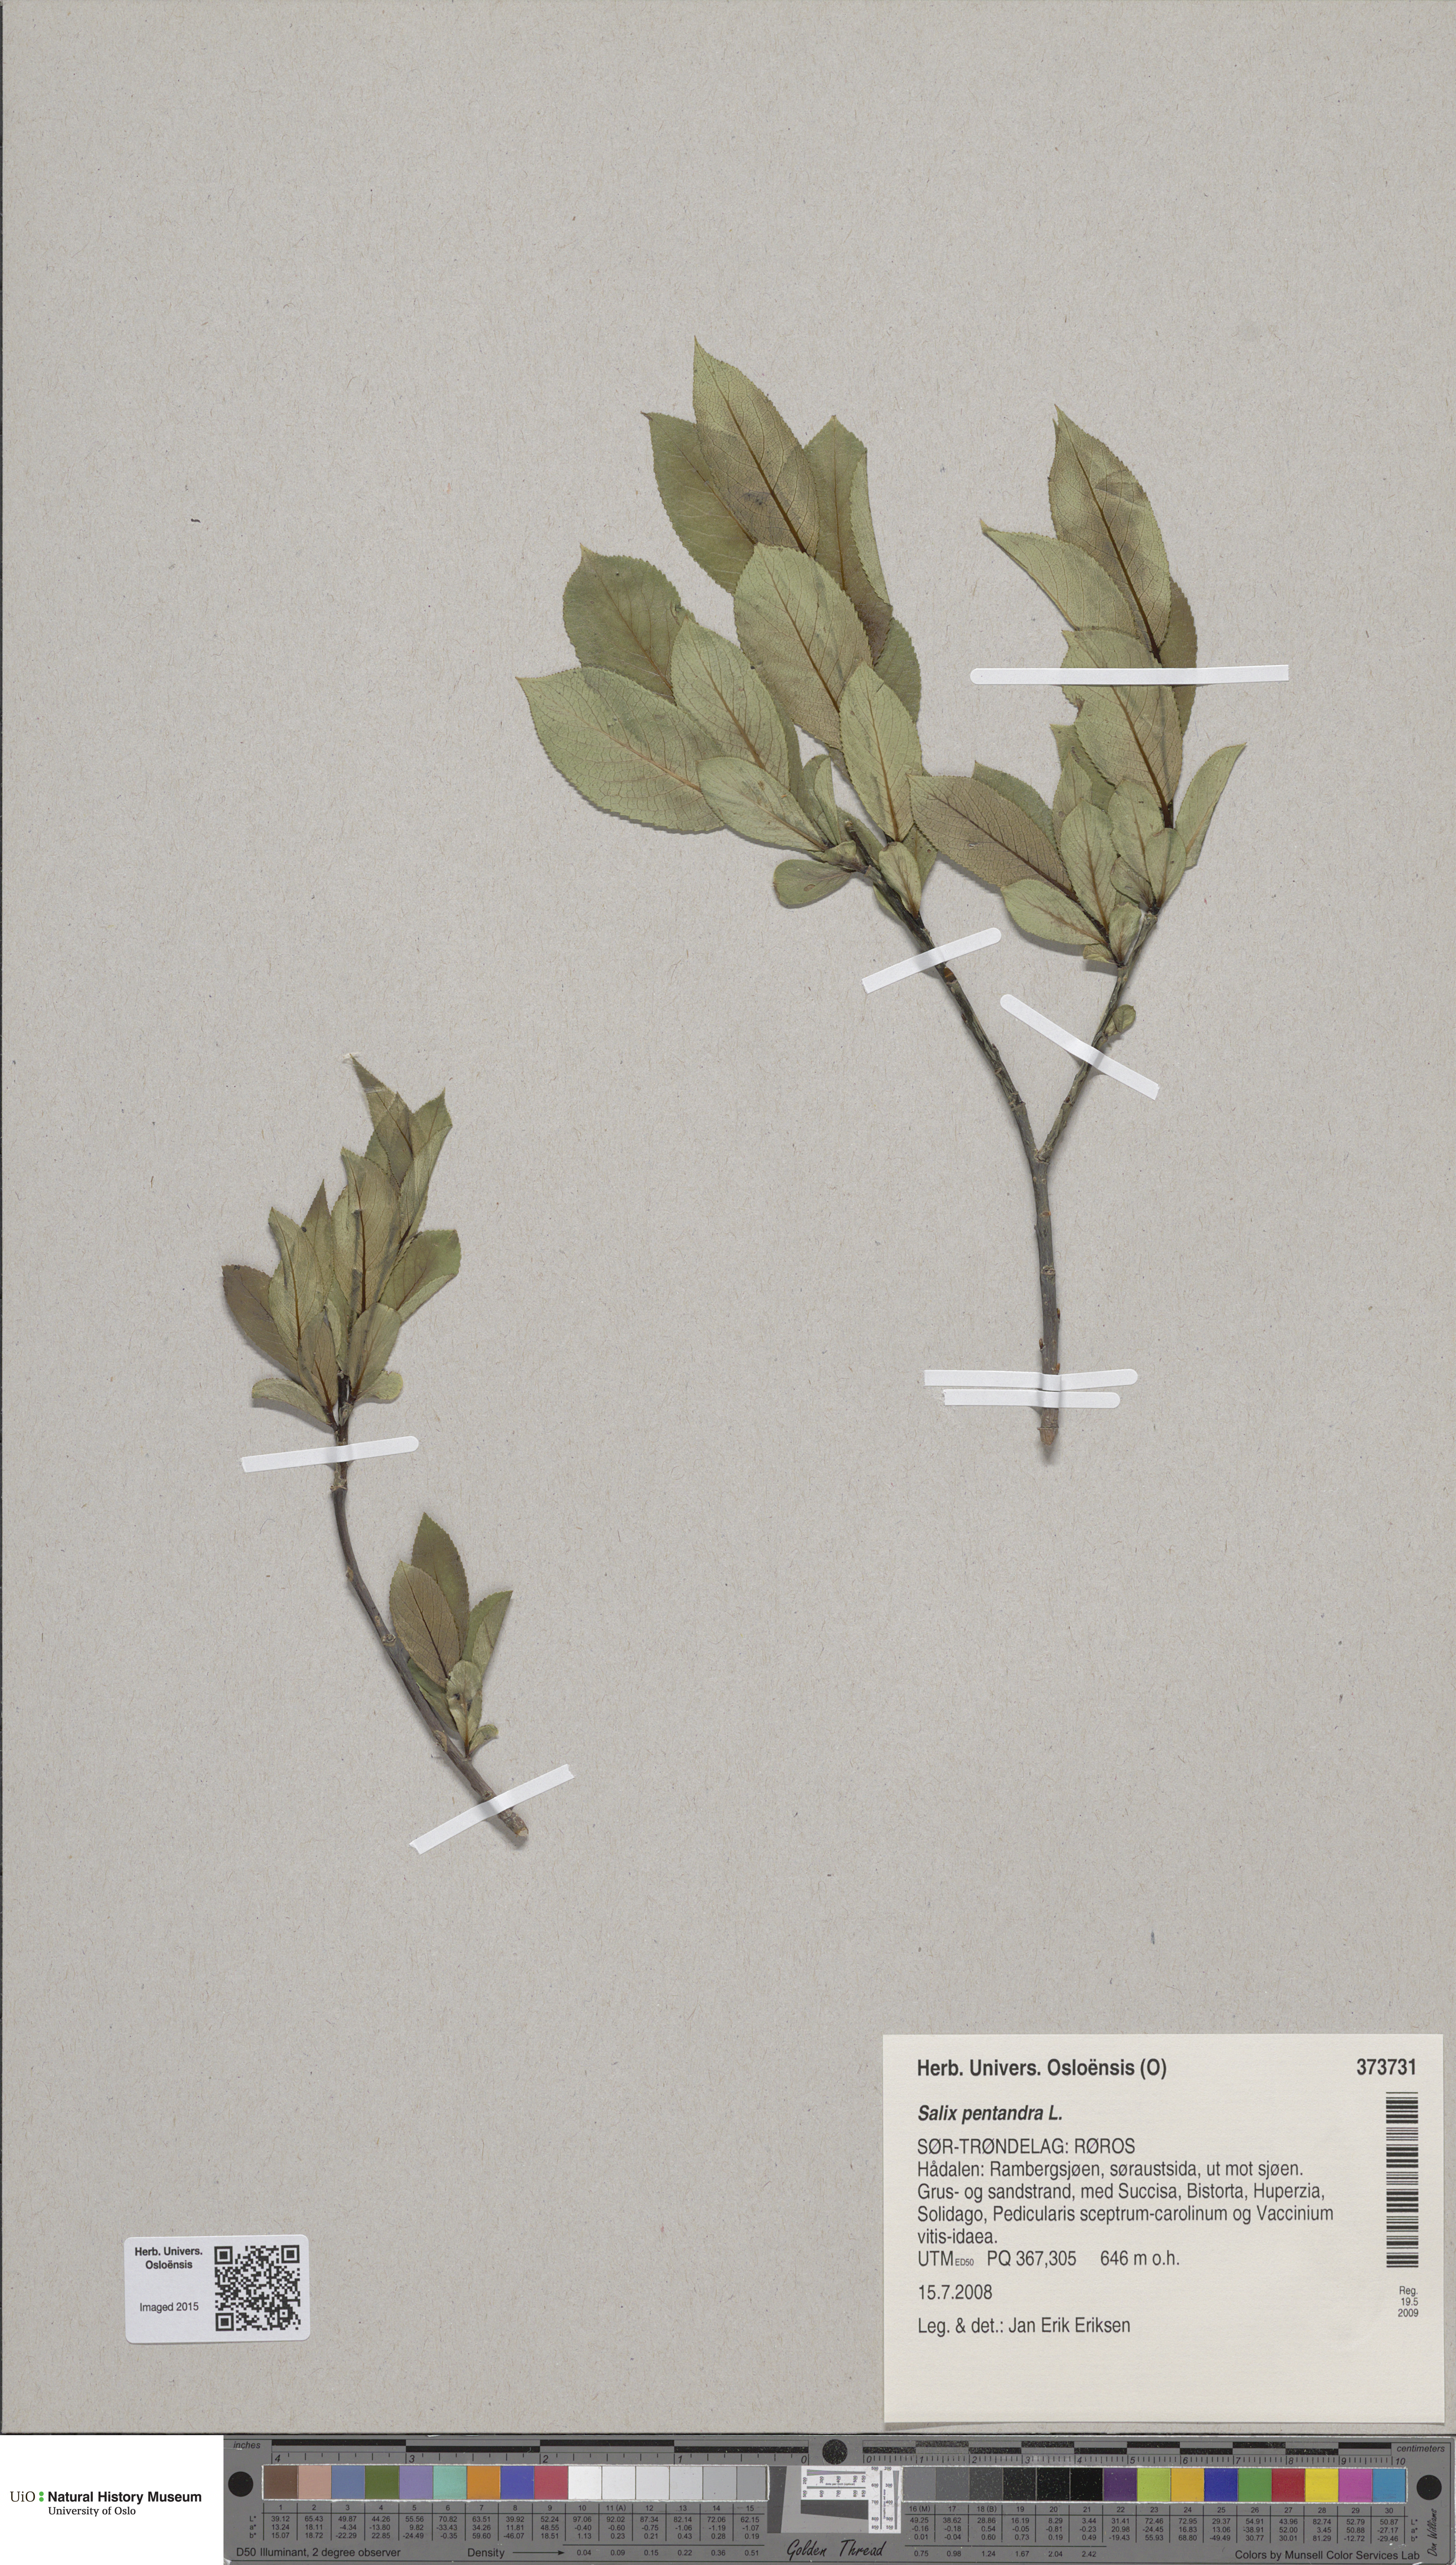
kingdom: Plantae
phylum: Tracheophyta
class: Magnoliopsida
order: Malpighiales
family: Salicaceae
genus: Salix
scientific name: Salix pentandra
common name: Bay willow
